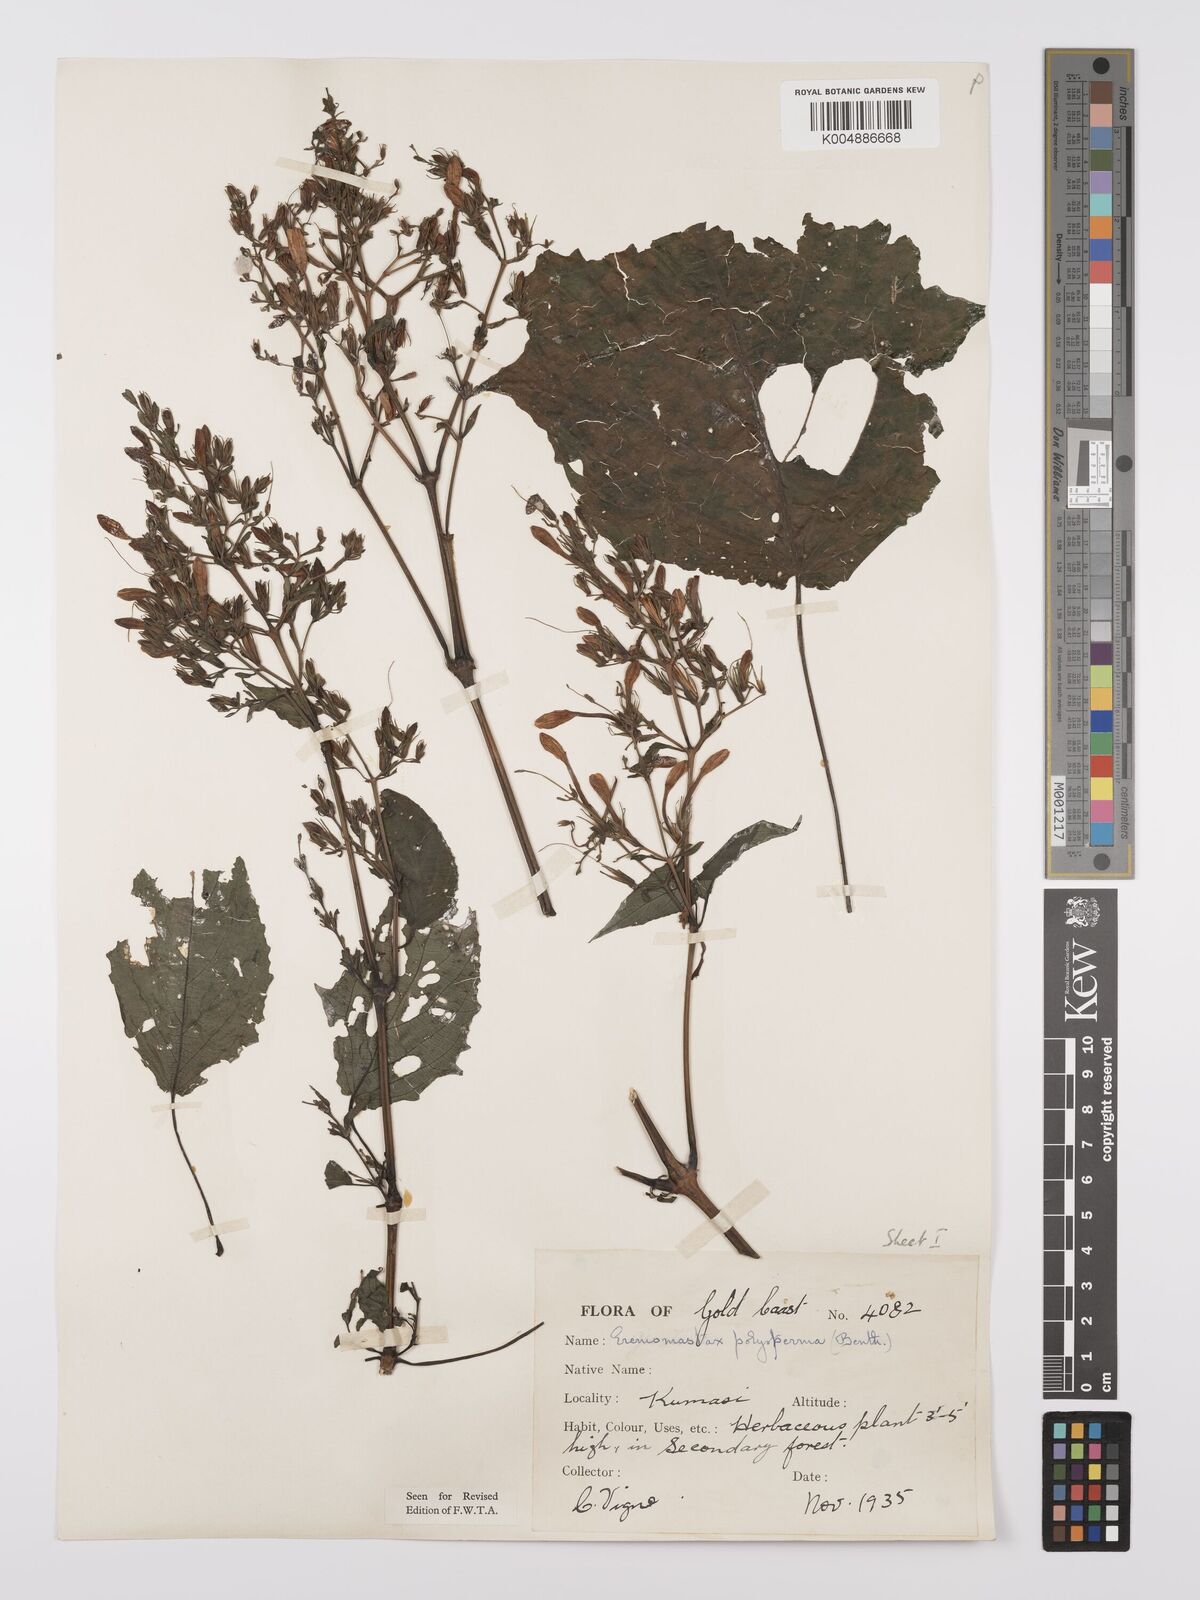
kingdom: Plantae
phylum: Tracheophyta
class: Magnoliopsida
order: Lamiales
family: Acanthaceae
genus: Eremomastax
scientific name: Eremomastax speciosa
